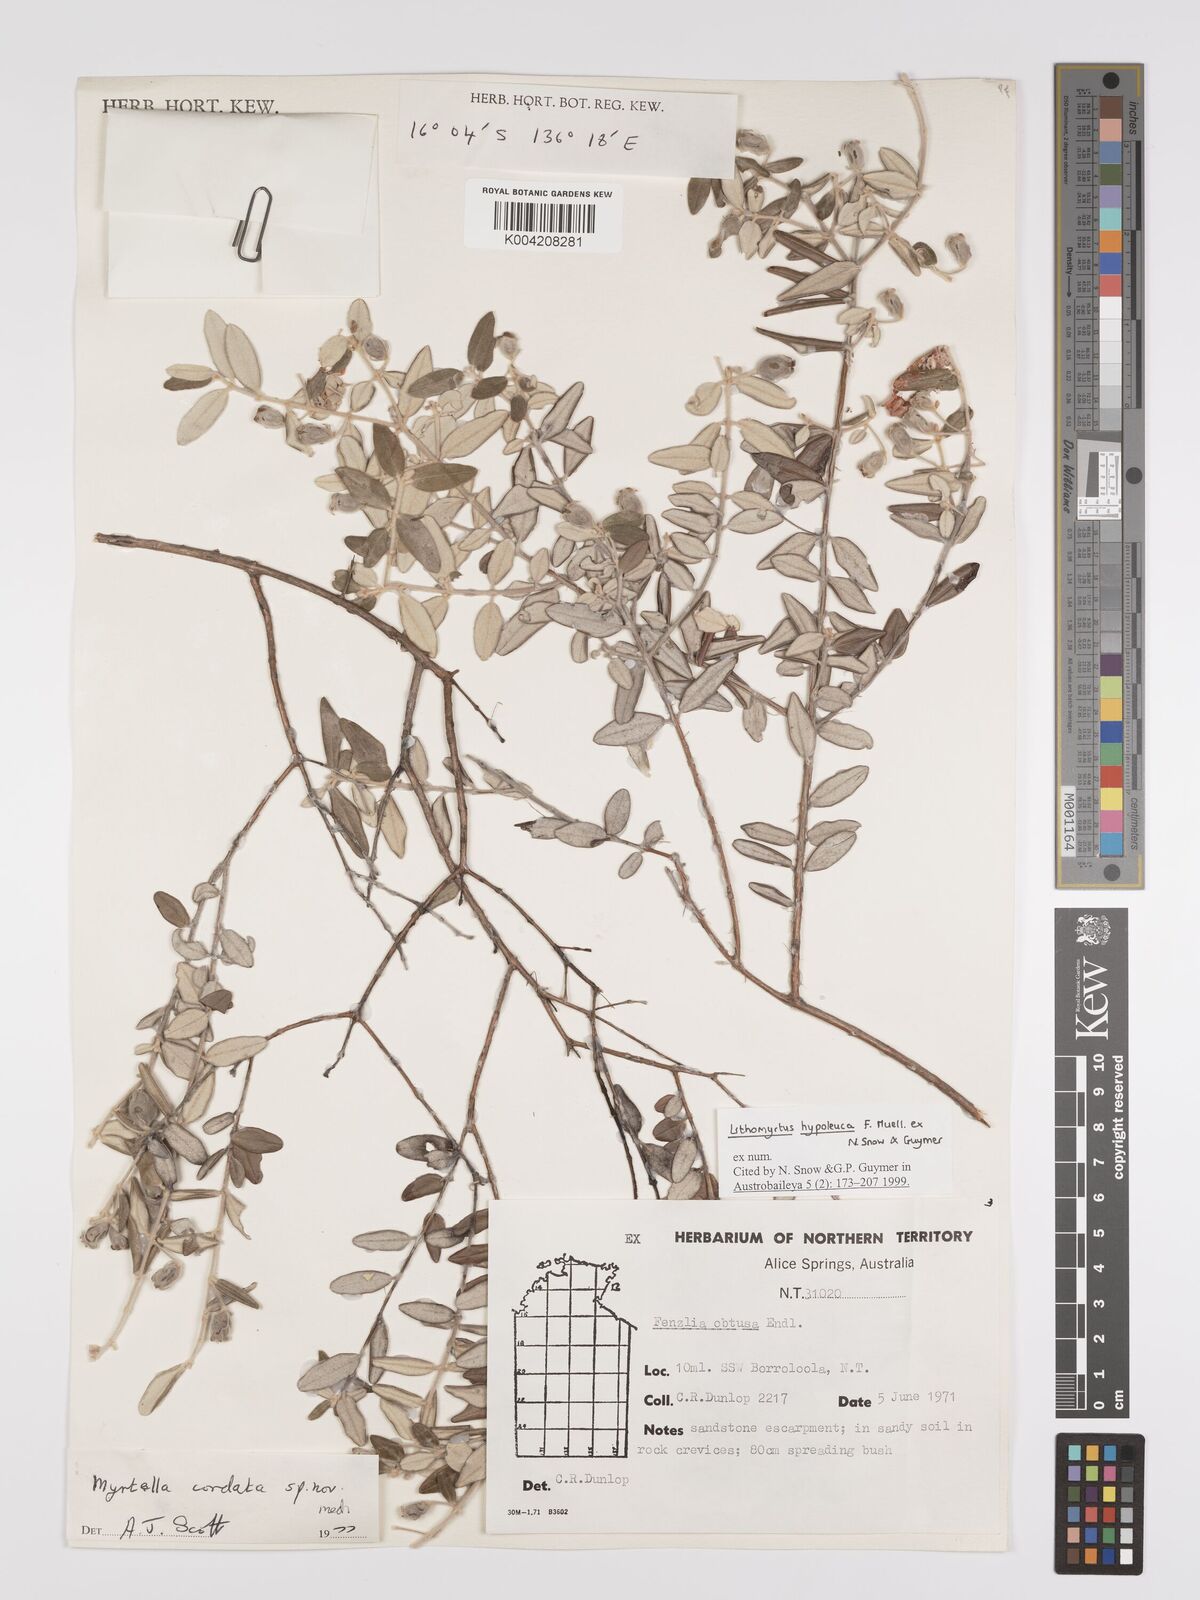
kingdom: Plantae
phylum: Tracheophyta
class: Magnoliopsida
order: Myrtales
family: Myrtaceae
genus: Lithomyrtus
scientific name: Lithomyrtus hypoleuca
